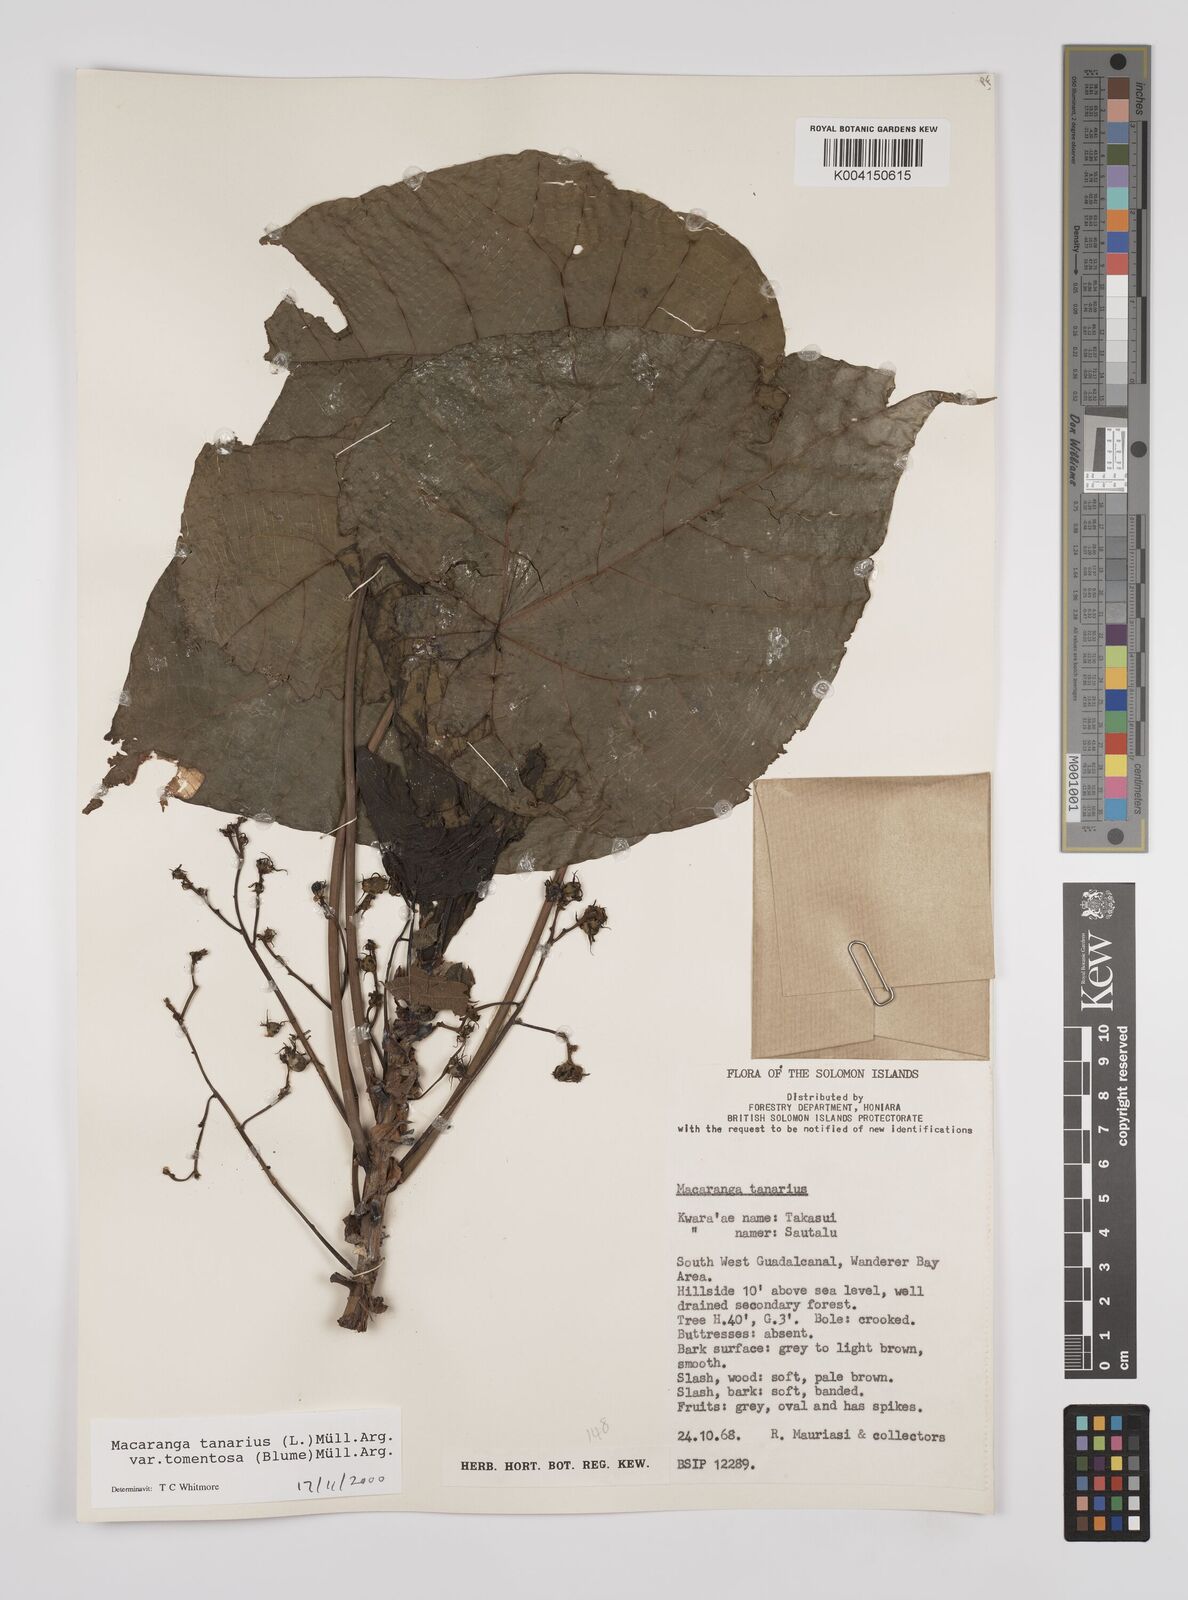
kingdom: Plantae
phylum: Tracheophyta
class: Magnoliopsida
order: Malpighiales
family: Euphorbiaceae
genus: Macaranga
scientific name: Macaranga tanarius
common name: Parasol leaf tree
